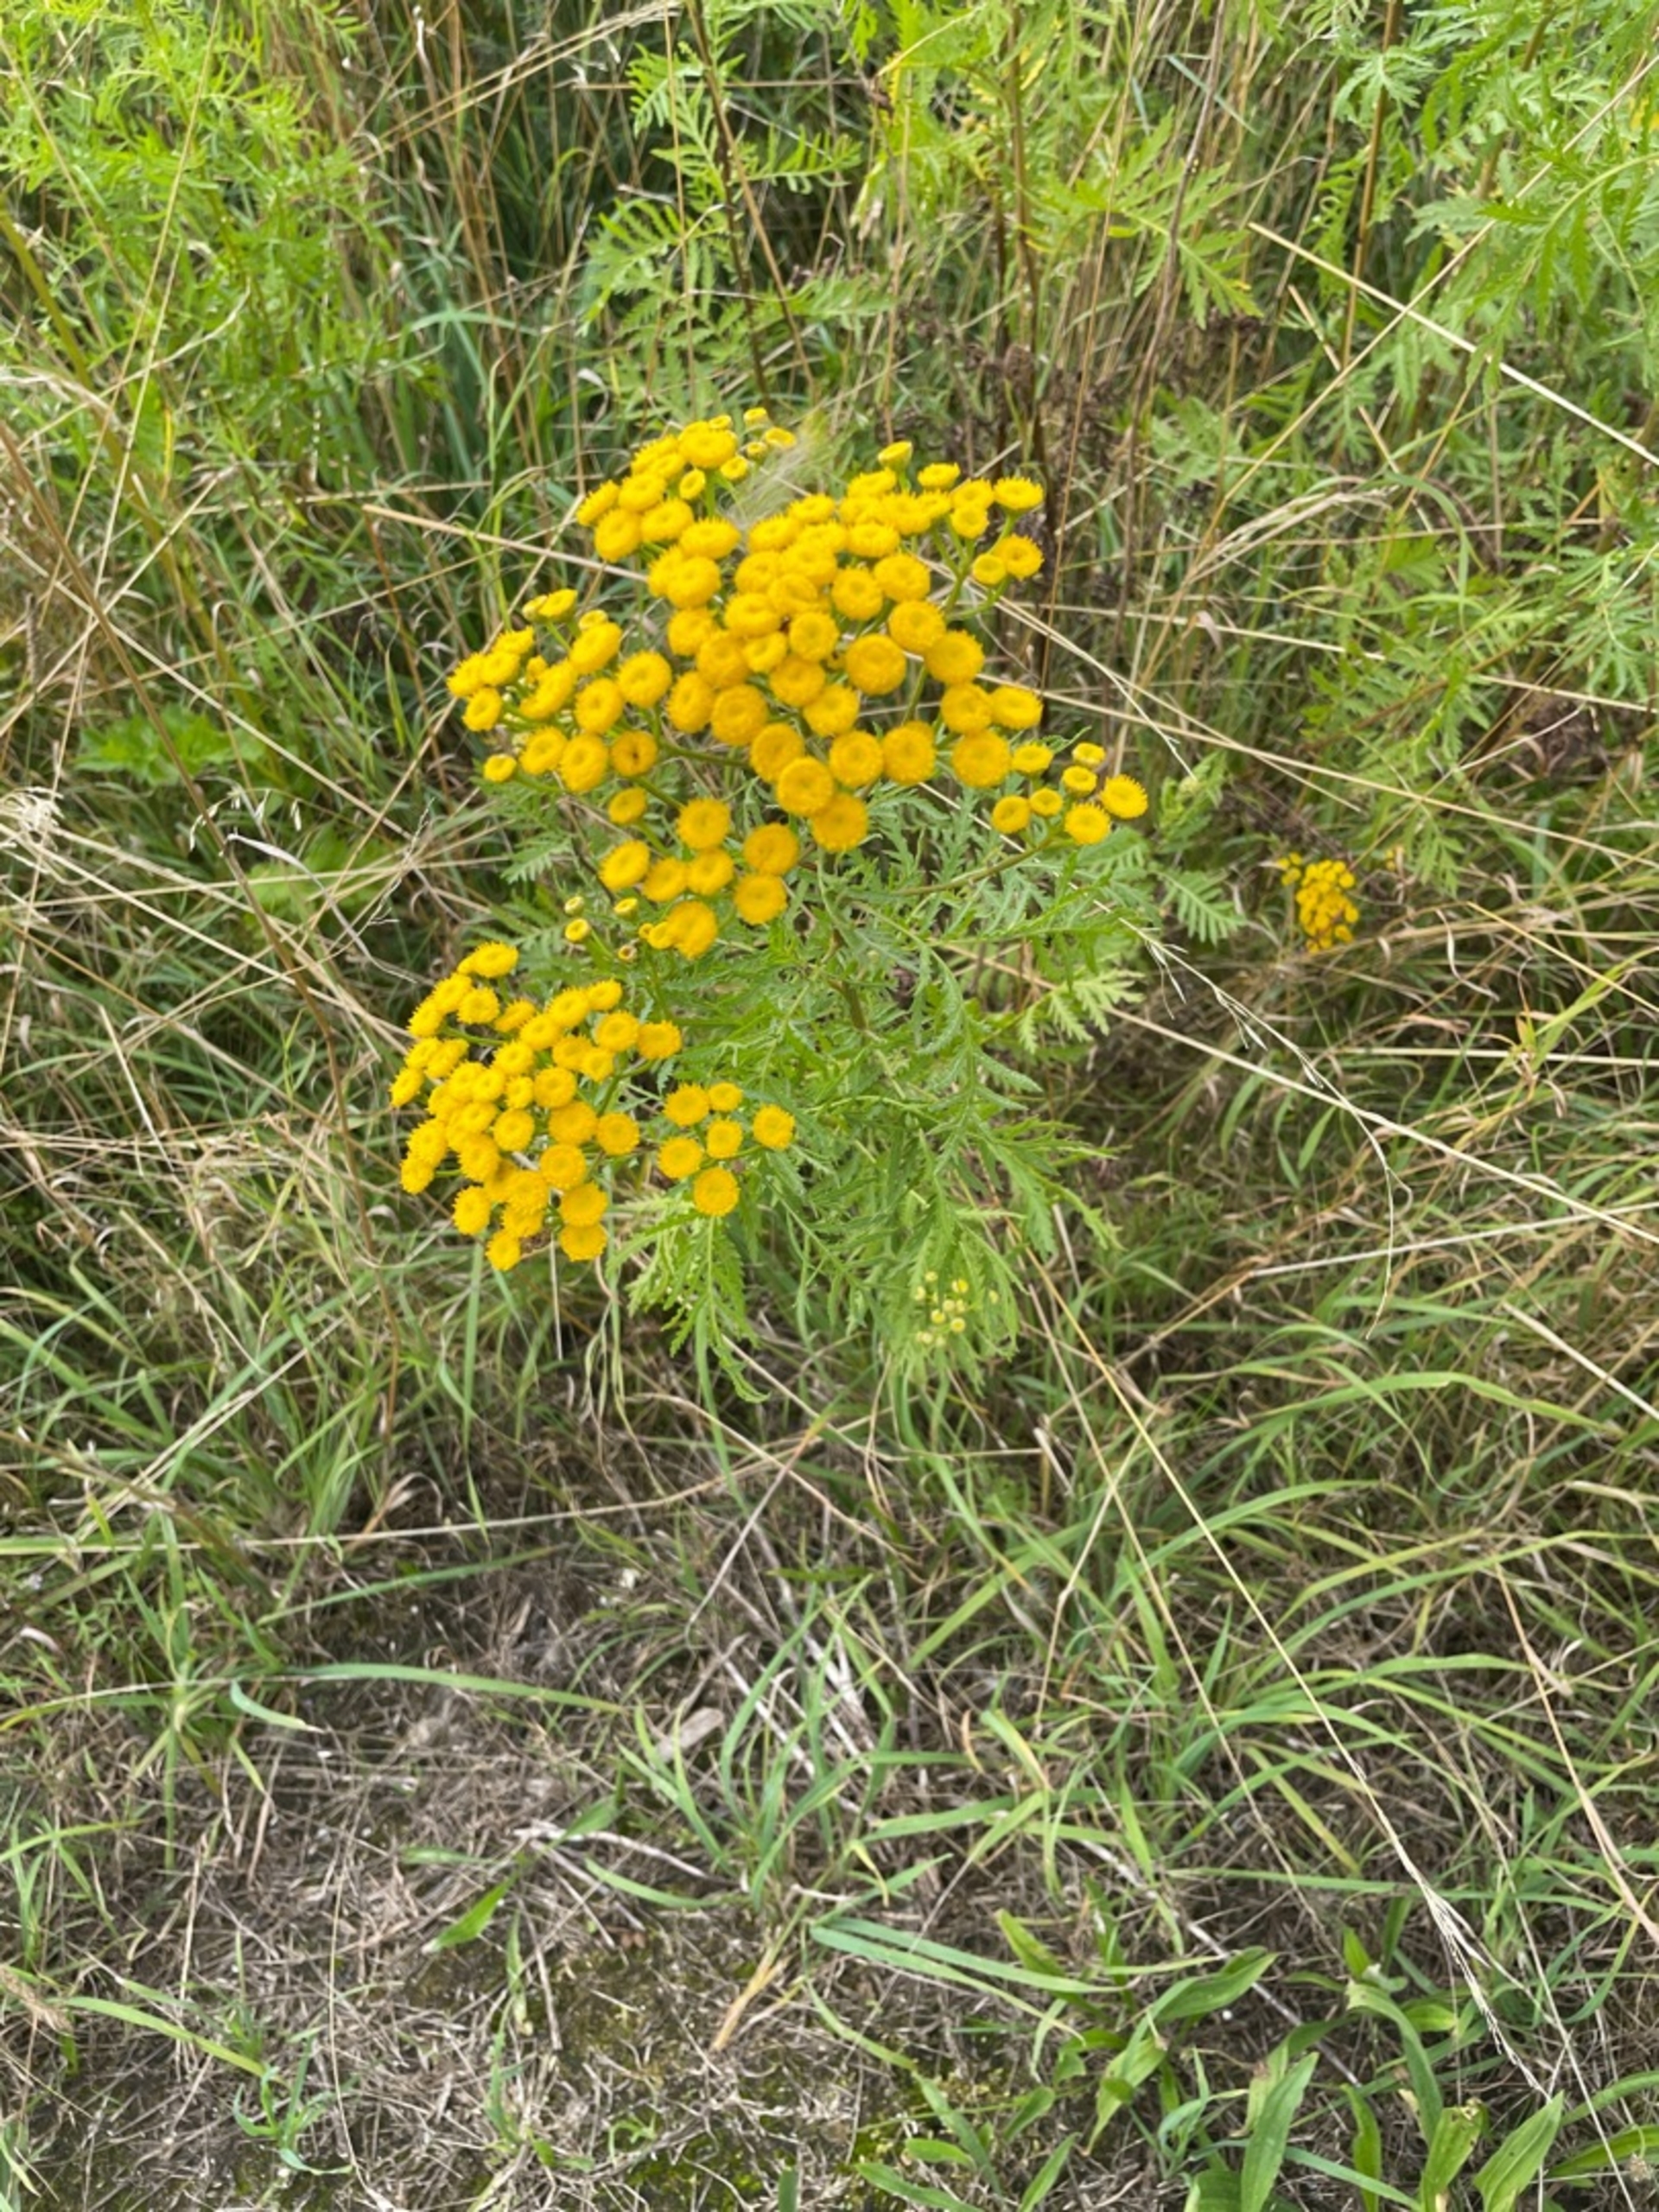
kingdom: Plantae
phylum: Tracheophyta
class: Magnoliopsida
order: Asterales
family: Asteraceae
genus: Tanacetum
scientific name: Tanacetum vulgare
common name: Rejnfan
